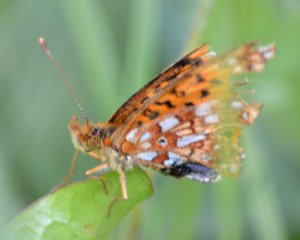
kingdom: Animalia
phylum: Arthropoda
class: Insecta
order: Lepidoptera
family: Nymphalidae
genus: Boloria
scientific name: Boloria selene
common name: Silver-bordered Fritillary
